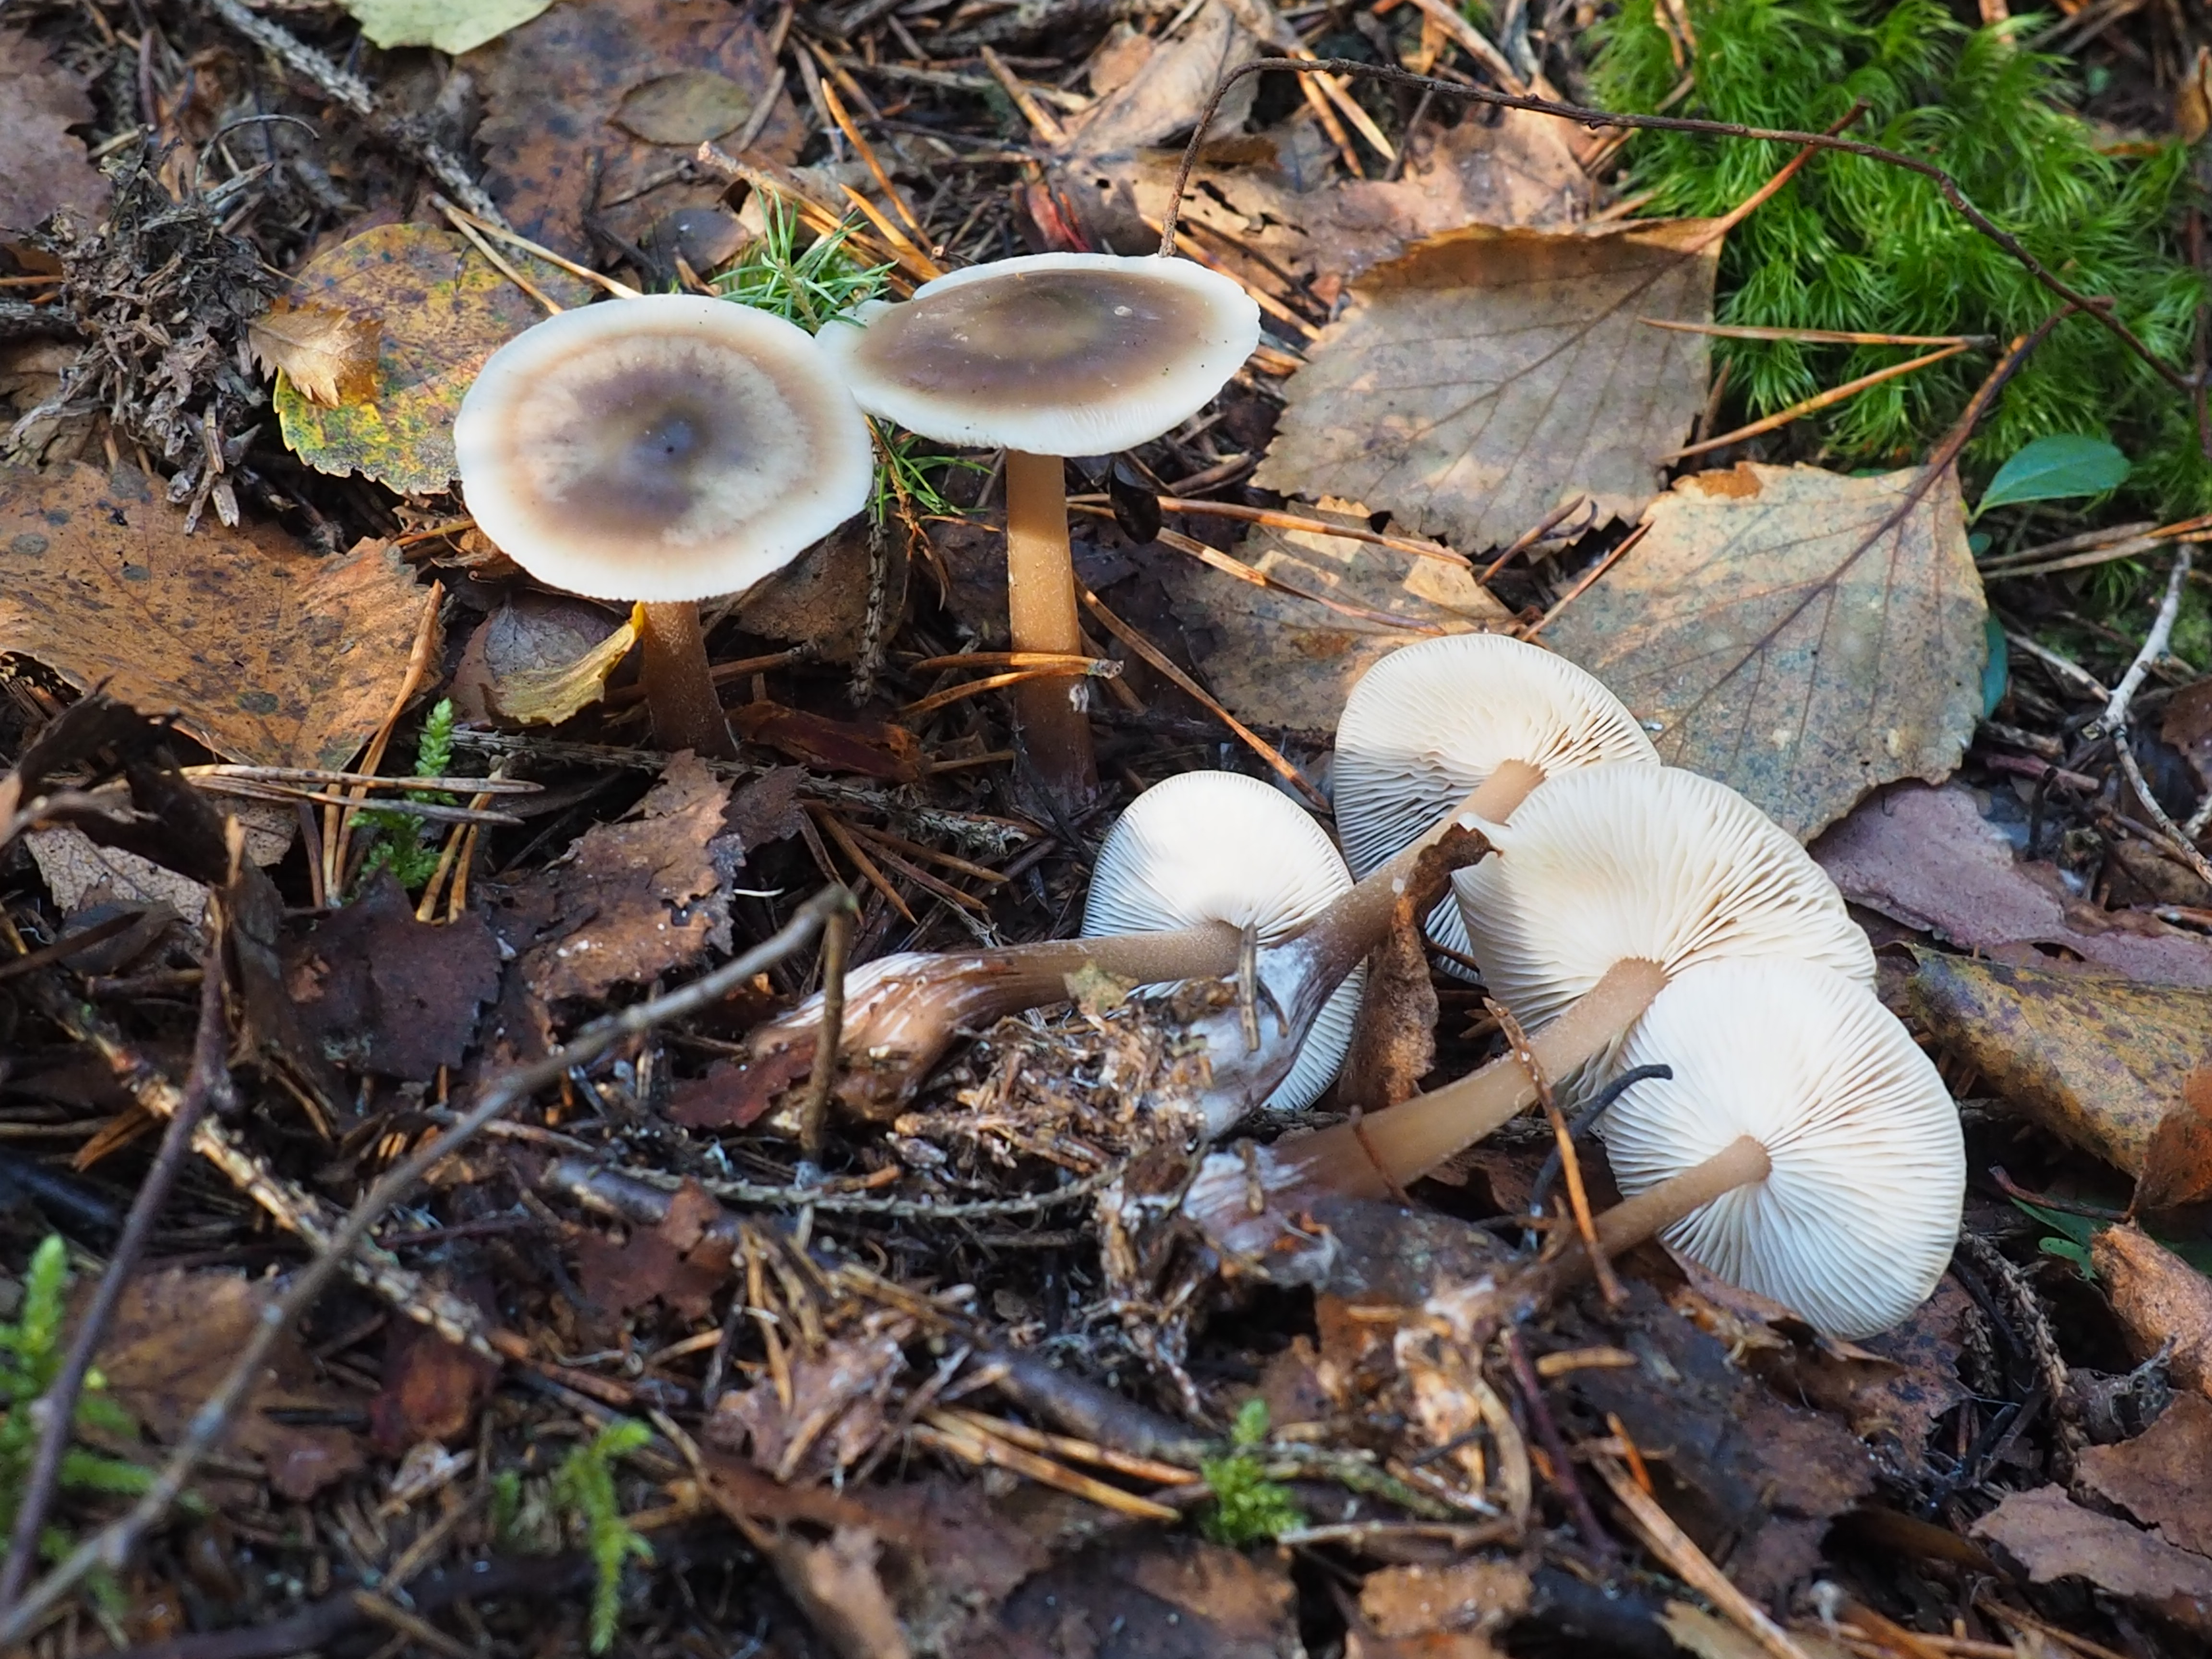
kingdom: Fungi
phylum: Basidiomycota
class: Agaricomycetes
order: Agaricales
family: Omphalotaceae
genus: Rhodocollybia
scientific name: Rhodocollybia asema
